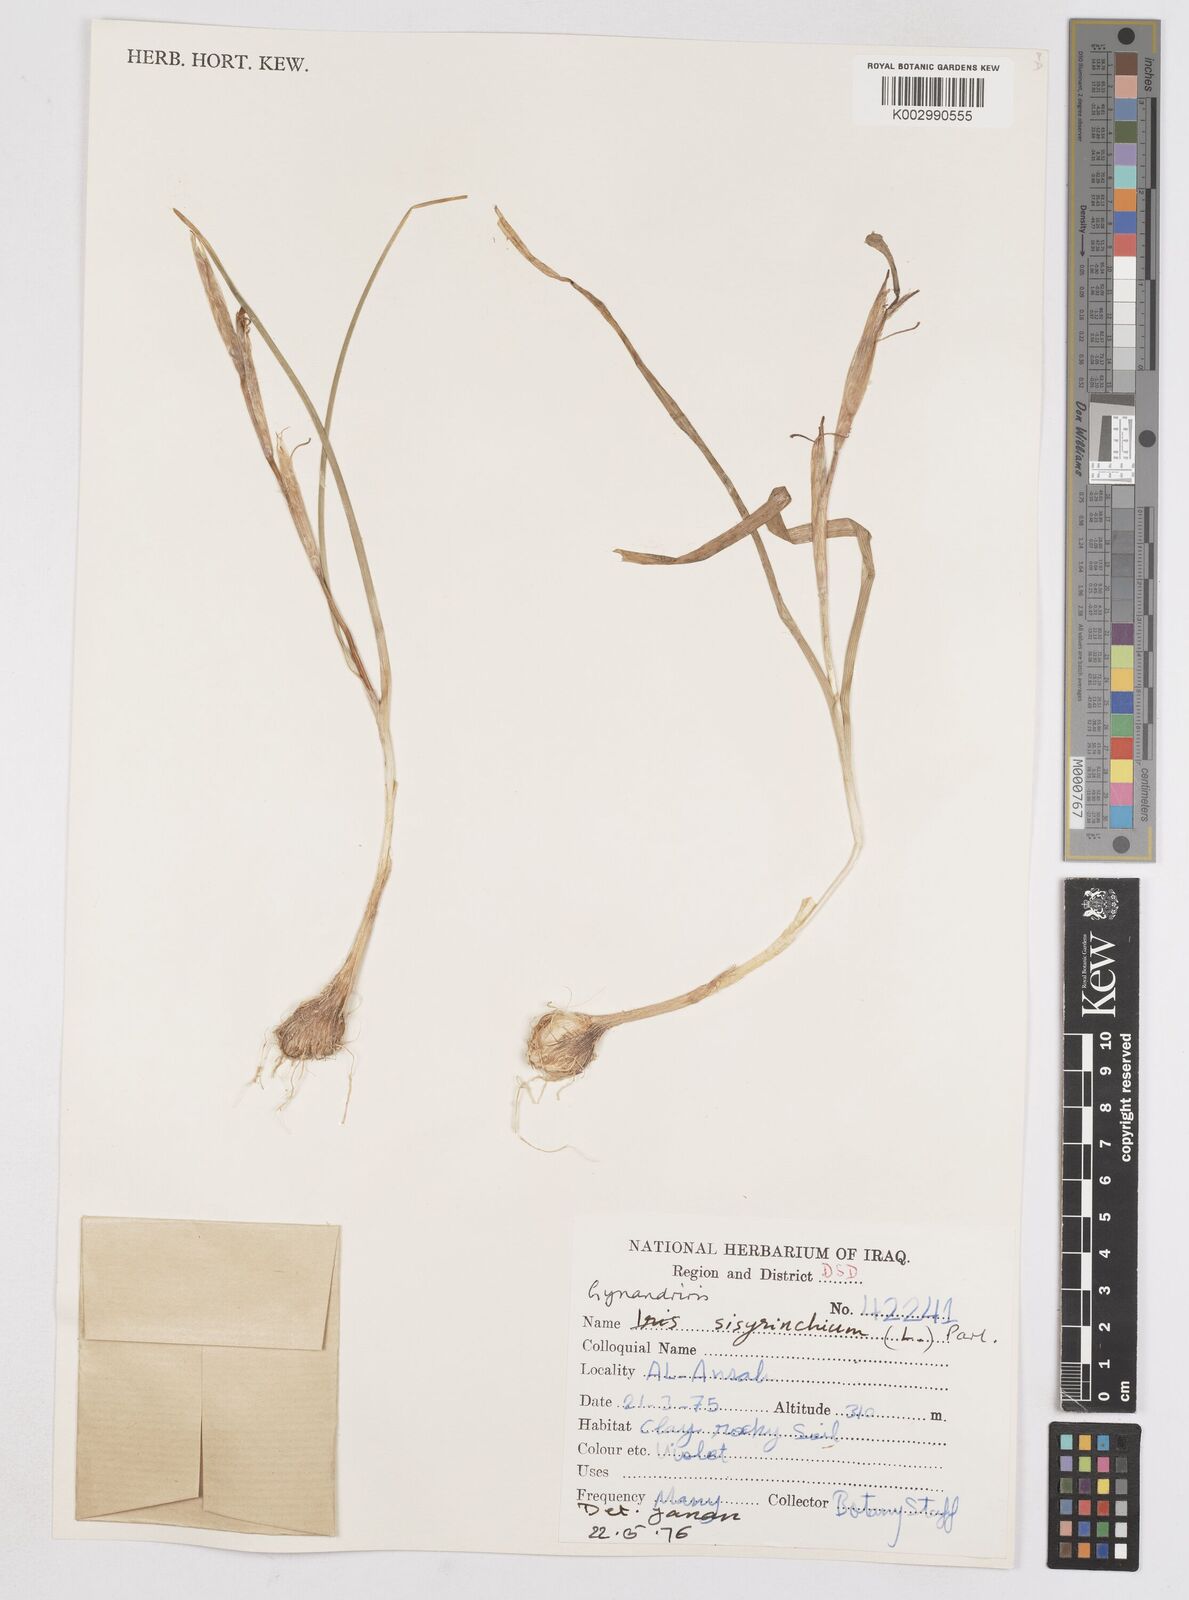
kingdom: Plantae
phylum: Tracheophyta
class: Liliopsida
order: Asparagales
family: Iridaceae
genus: Moraea
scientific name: Moraea sisyrinchium
